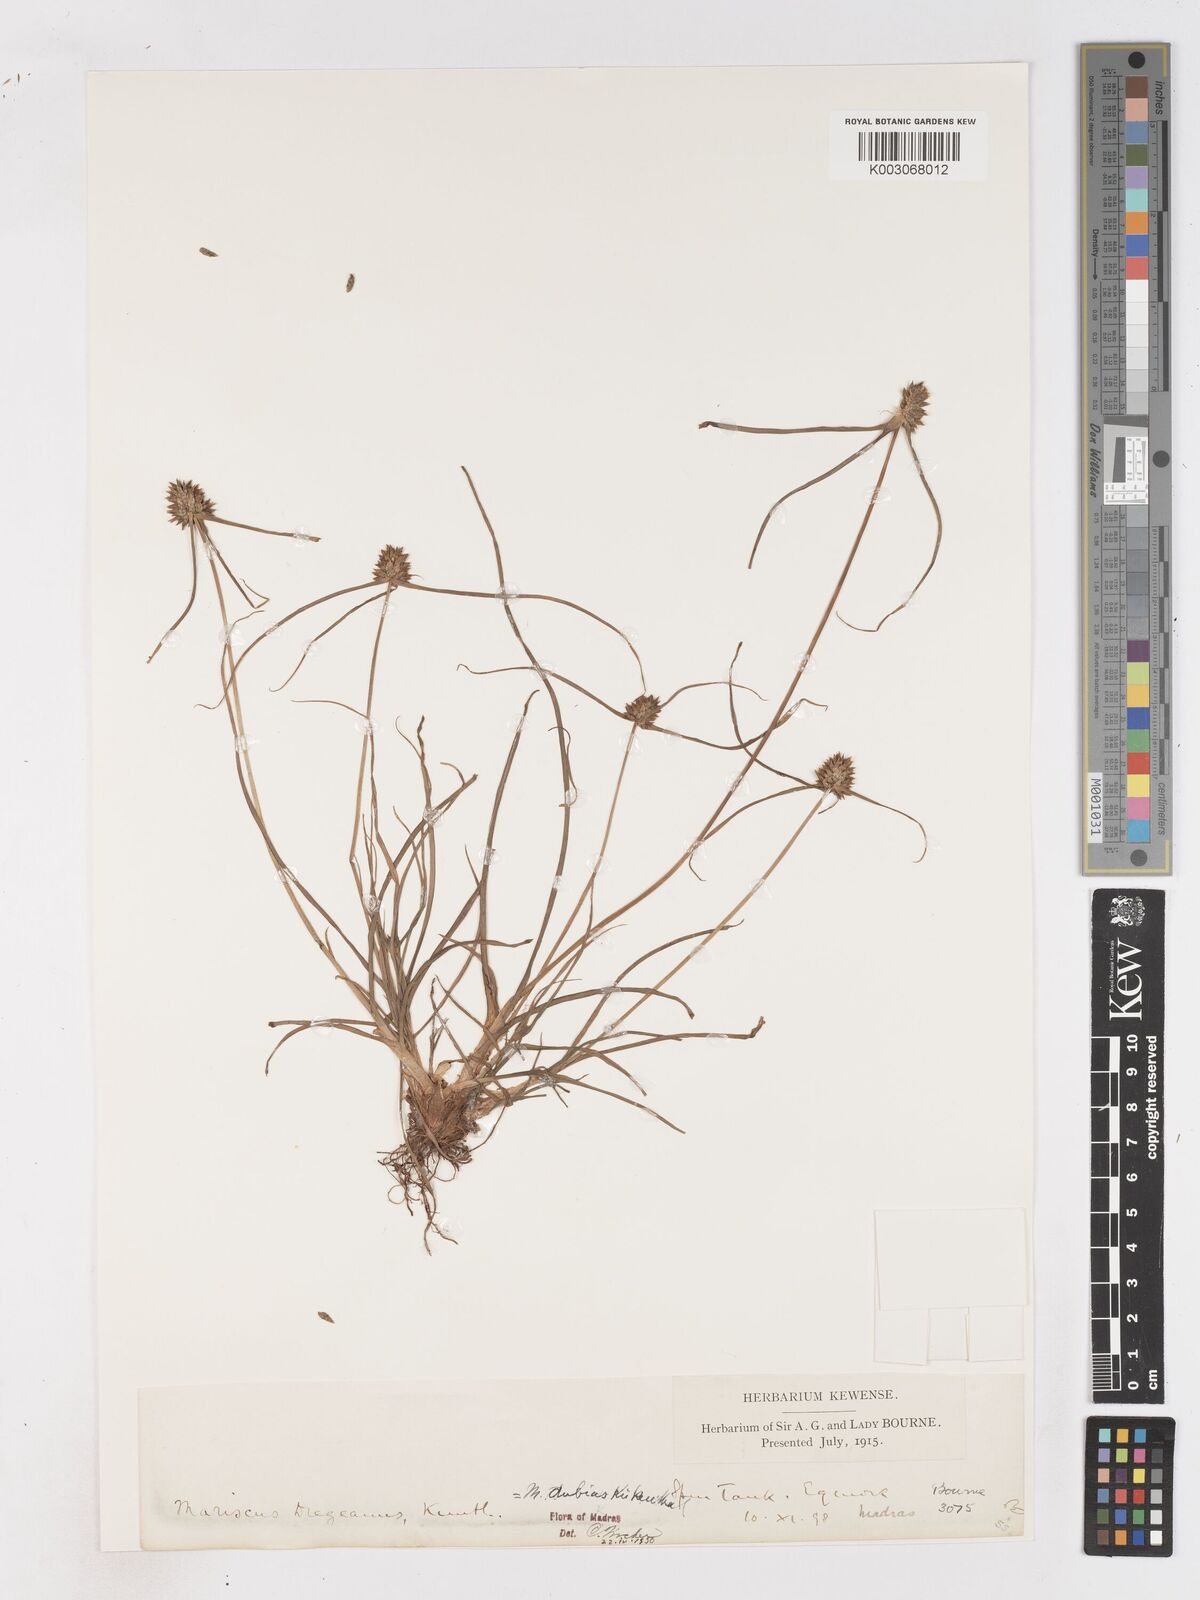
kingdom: Plantae
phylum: Tracheophyta
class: Liliopsida
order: Poales
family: Cyperaceae
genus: Cyperus
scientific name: Cyperus dubius
